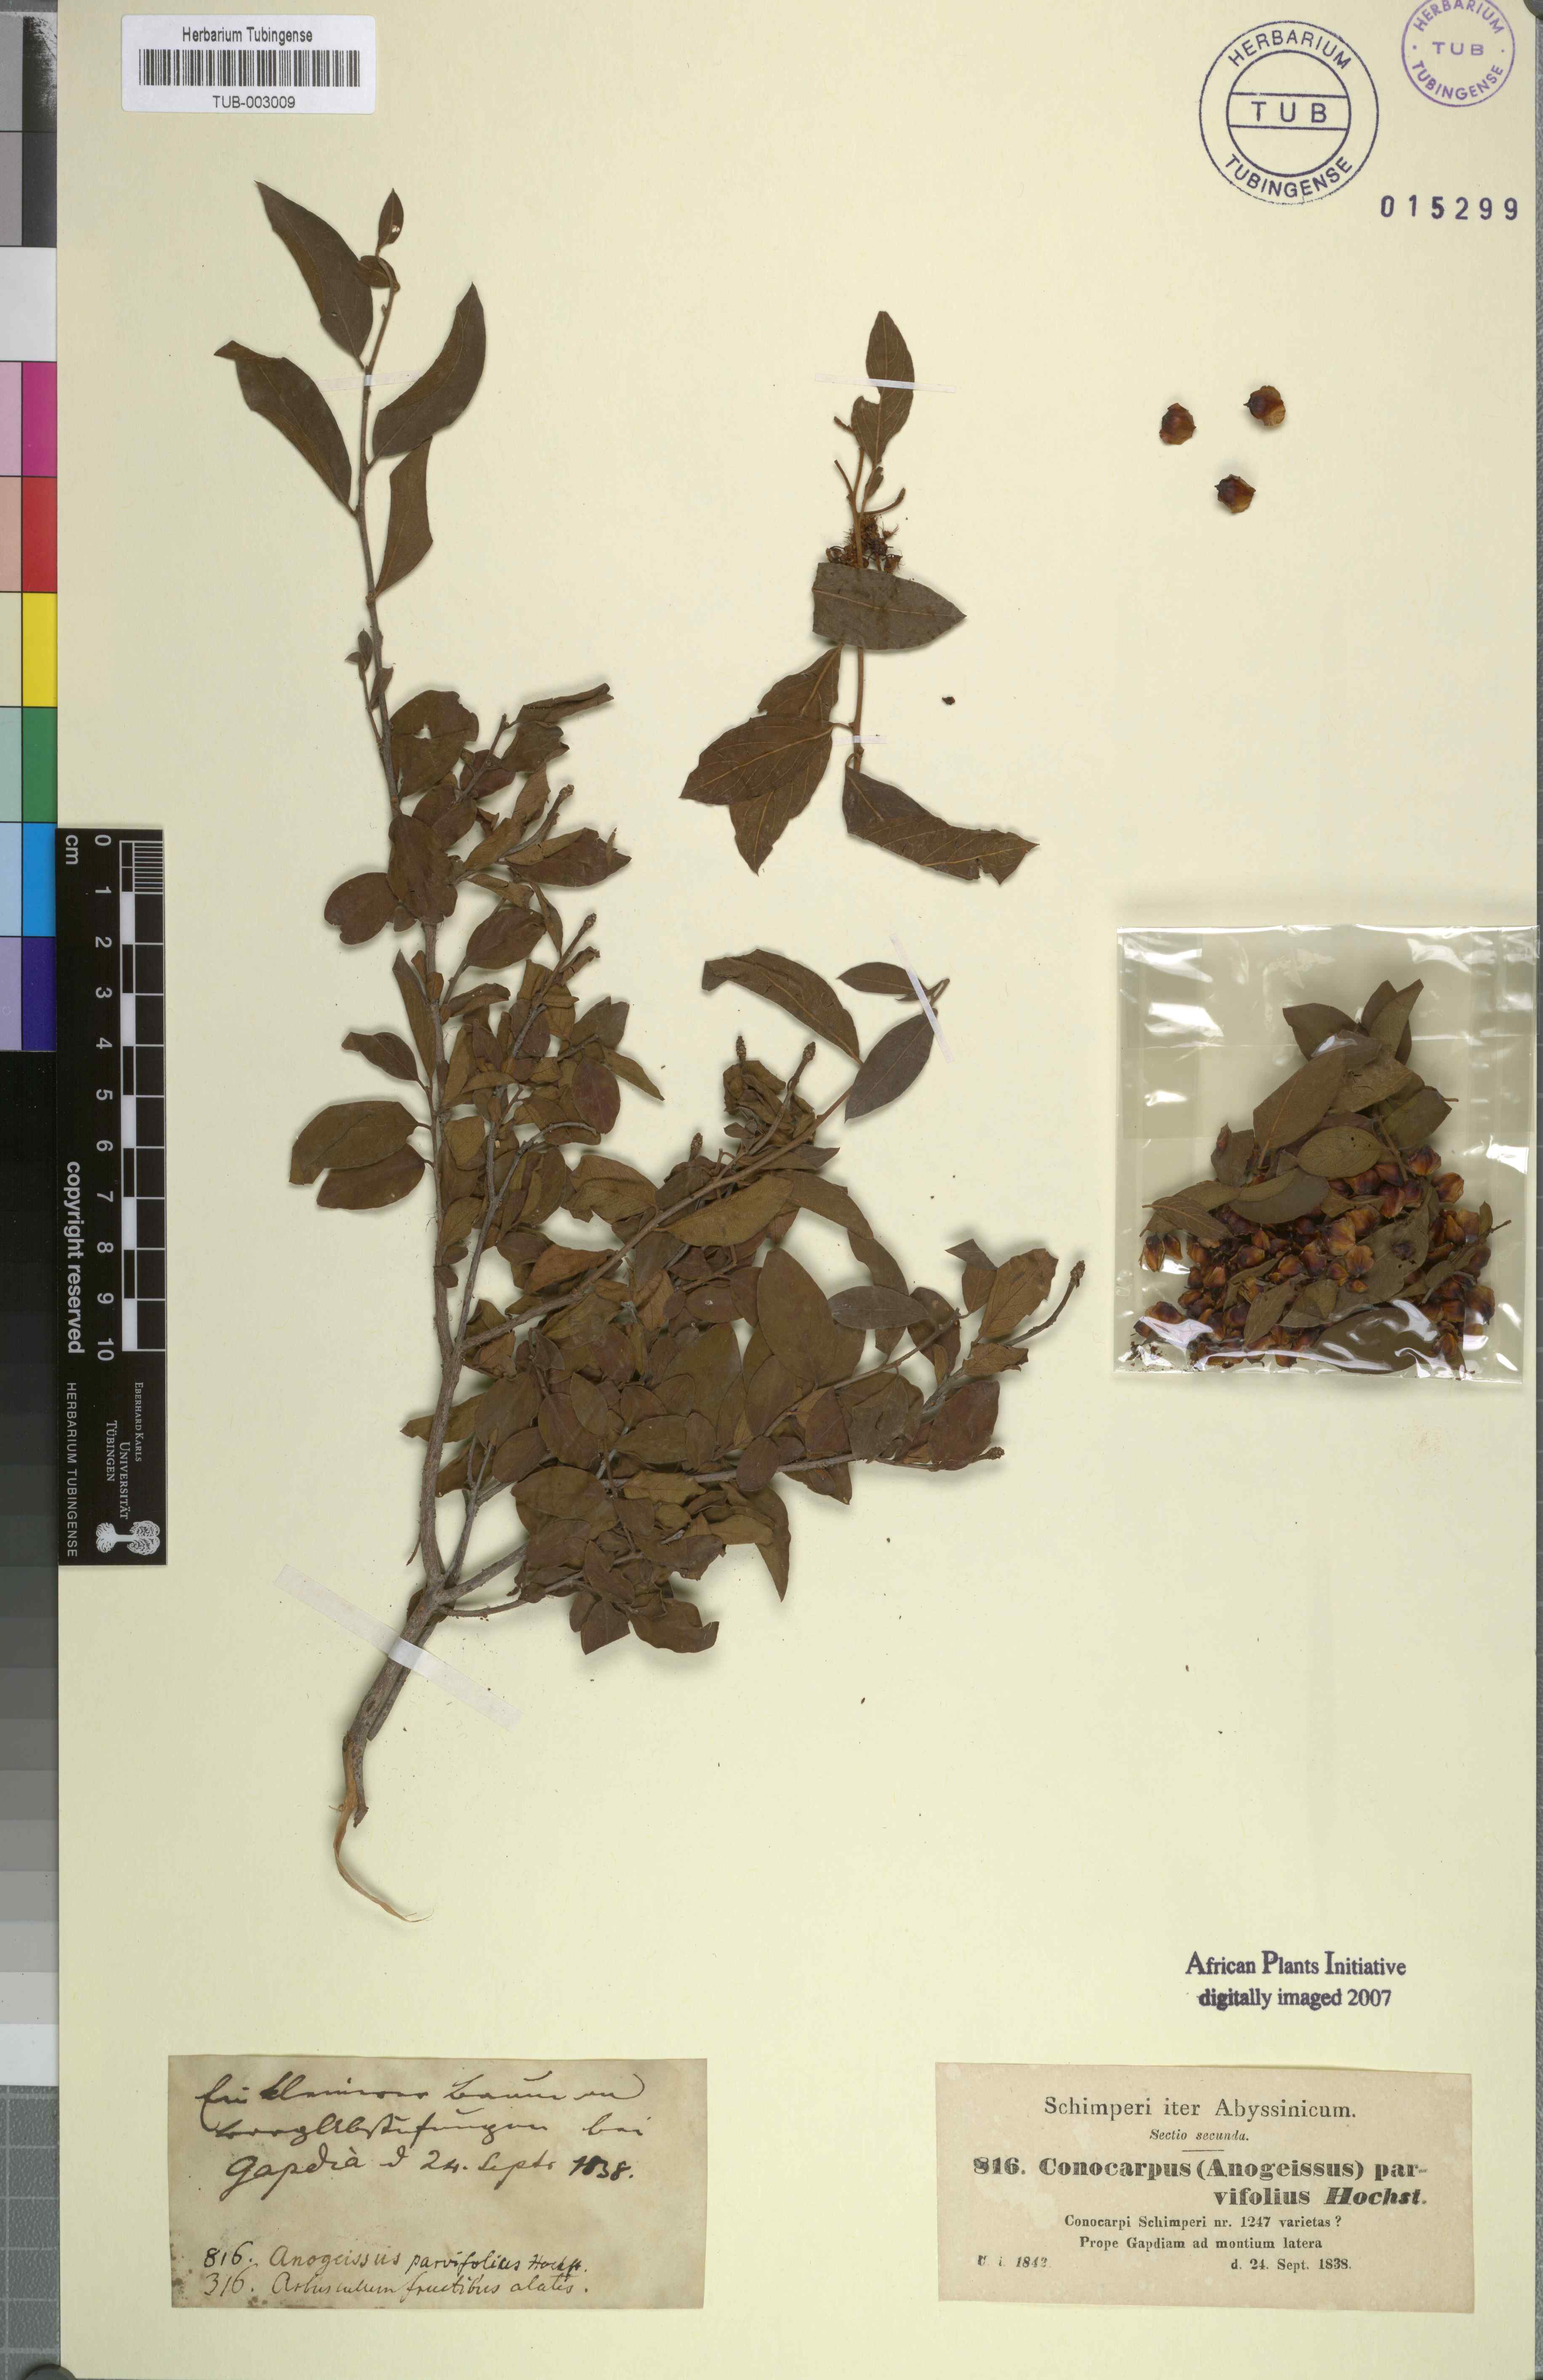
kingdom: Plantae
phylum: Tracheophyta
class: Magnoliopsida
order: Myrtales
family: Combretaceae
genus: Terminalia
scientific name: Terminalia leiocarpa
